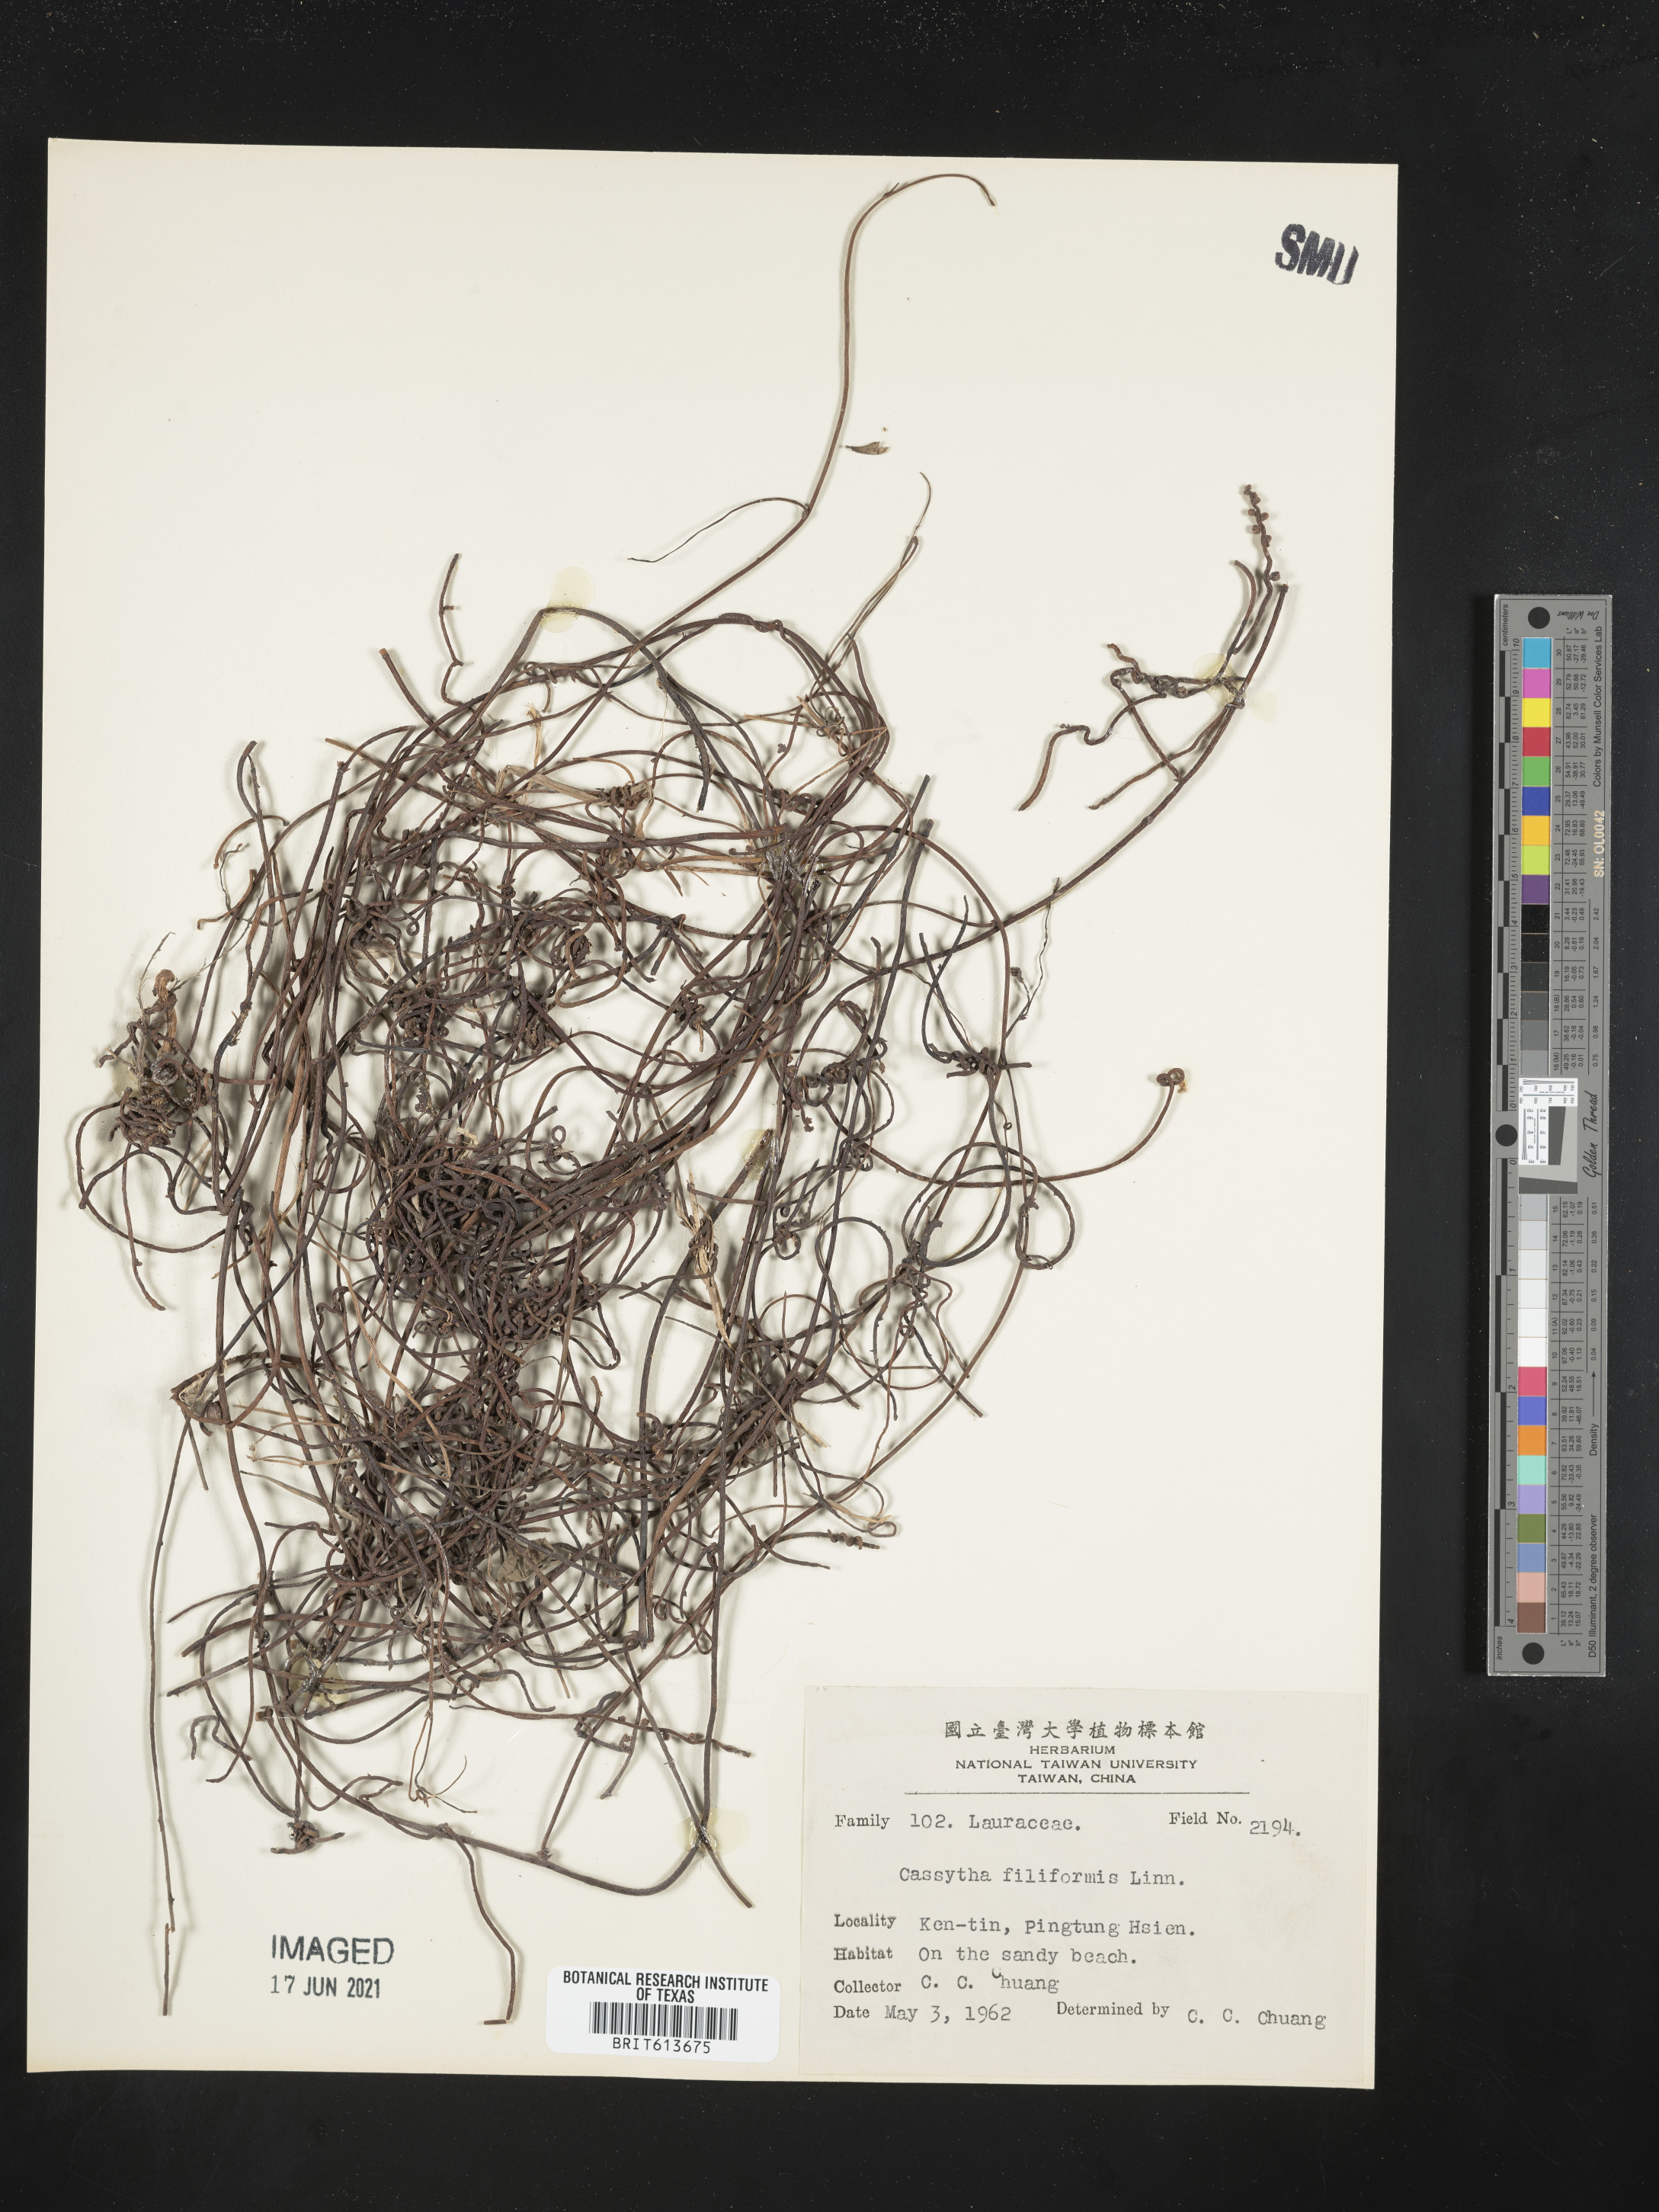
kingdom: Plantae
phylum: Tracheophyta
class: Magnoliopsida
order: Laurales
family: Lauraceae
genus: Cassytha
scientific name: Cassytha filiformis
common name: Dodder-laurel
